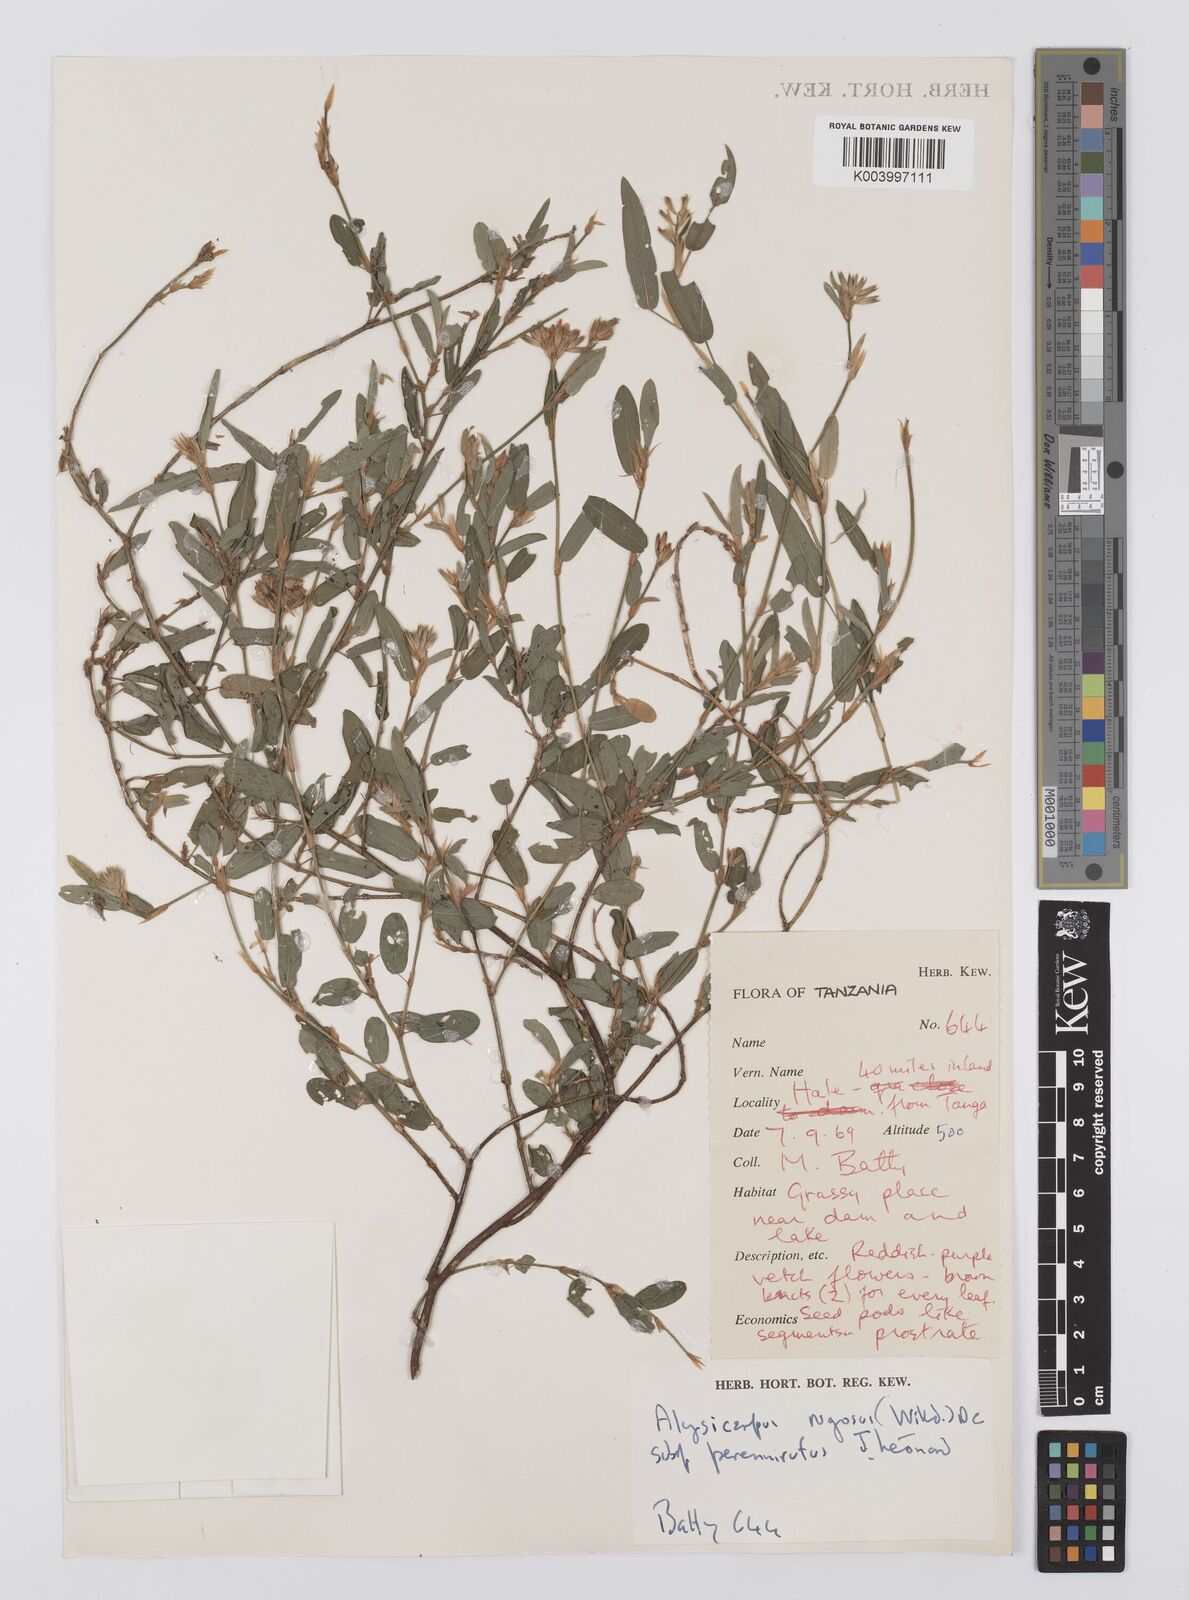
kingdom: Plantae
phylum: Tracheophyta
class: Magnoliopsida
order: Fabales
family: Fabaceae
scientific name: Fabaceae
